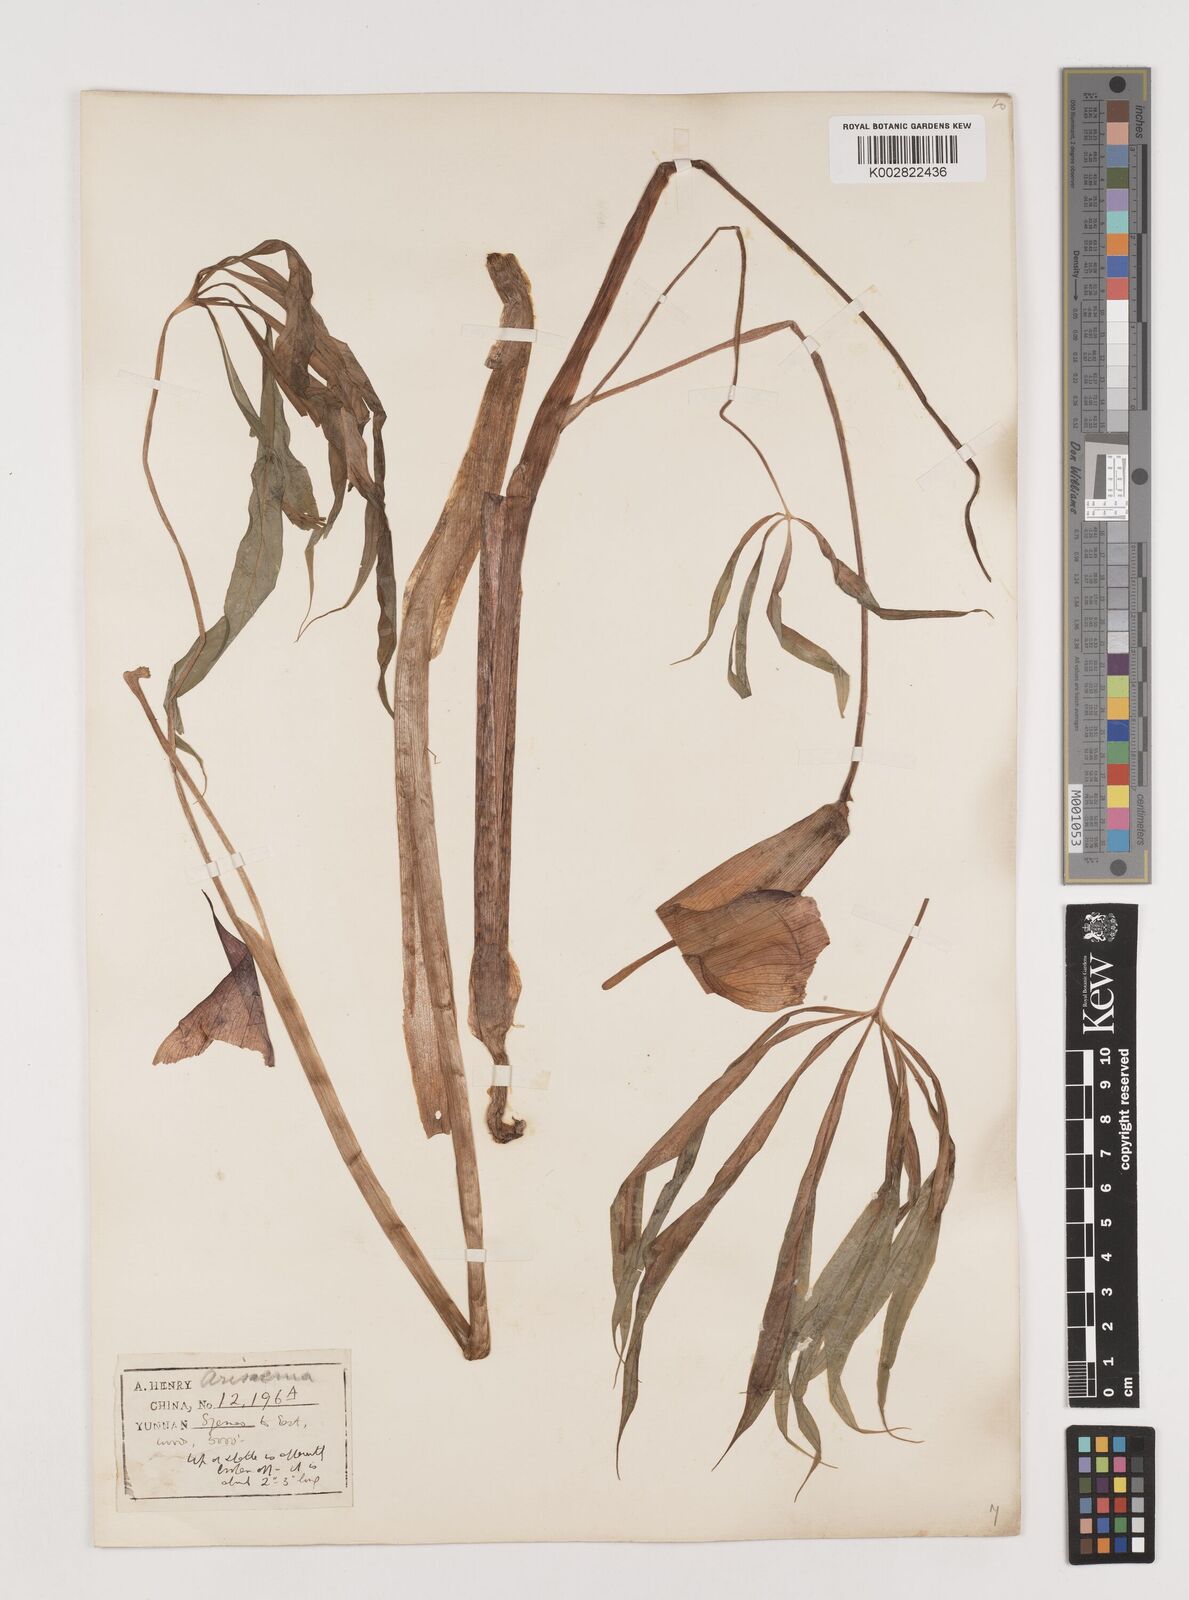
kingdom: Plantae
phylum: Tracheophyta
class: Liliopsida
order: Alismatales
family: Araceae
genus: Arisaema
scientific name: Arisaema erubescens
